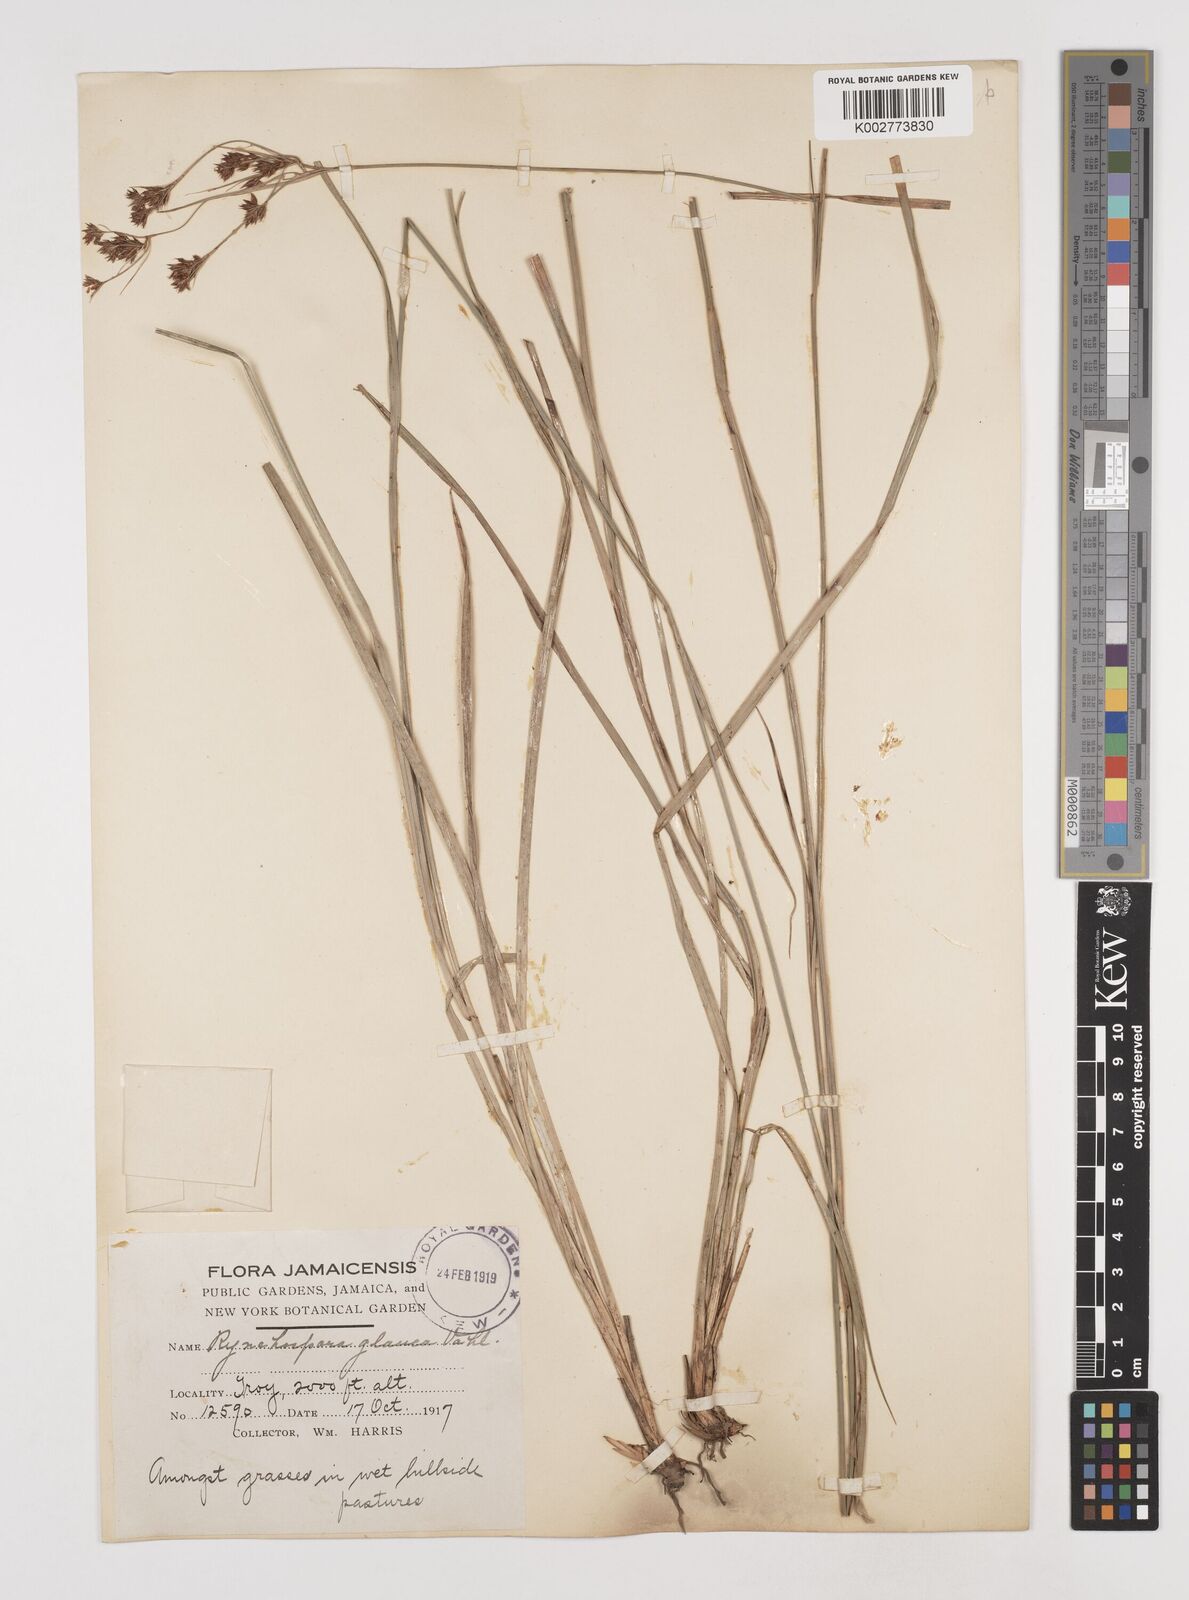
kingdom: Plantae
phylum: Tracheophyta
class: Liliopsida
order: Poales
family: Cyperaceae
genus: Rhynchospora
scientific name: Rhynchospora rugosa
